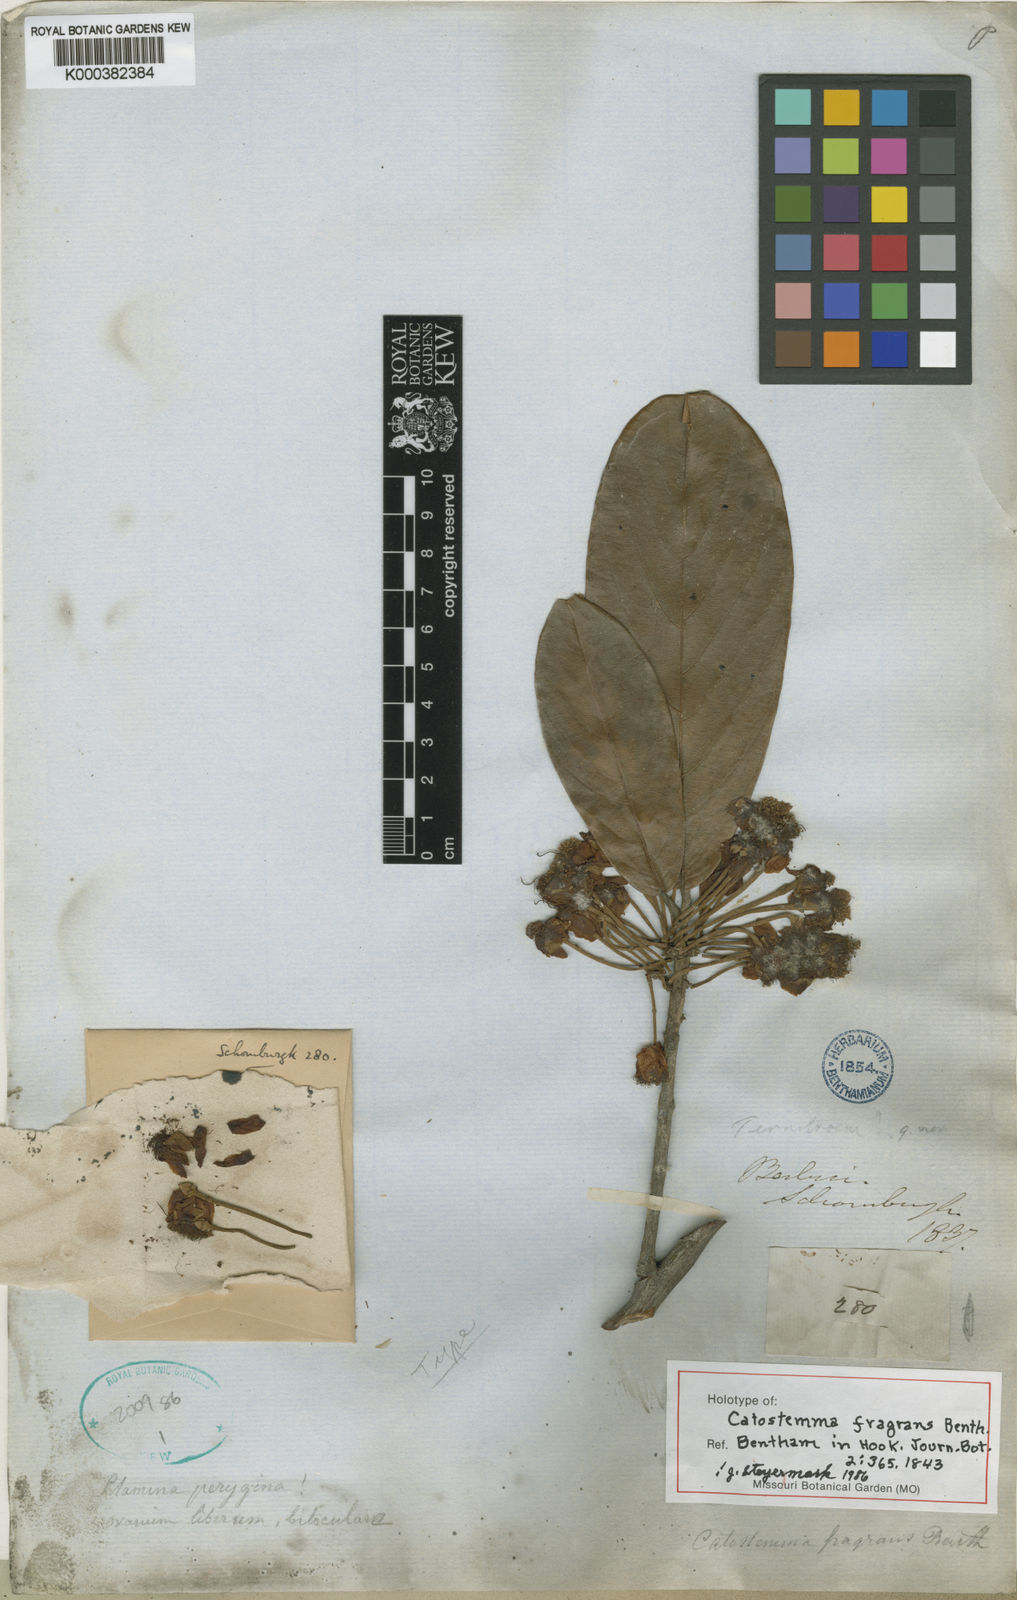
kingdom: Plantae
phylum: Tracheophyta
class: Magnoliopsida
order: Malvales
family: Malvaceae
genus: Catostemma
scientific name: Catostemma fragrans
